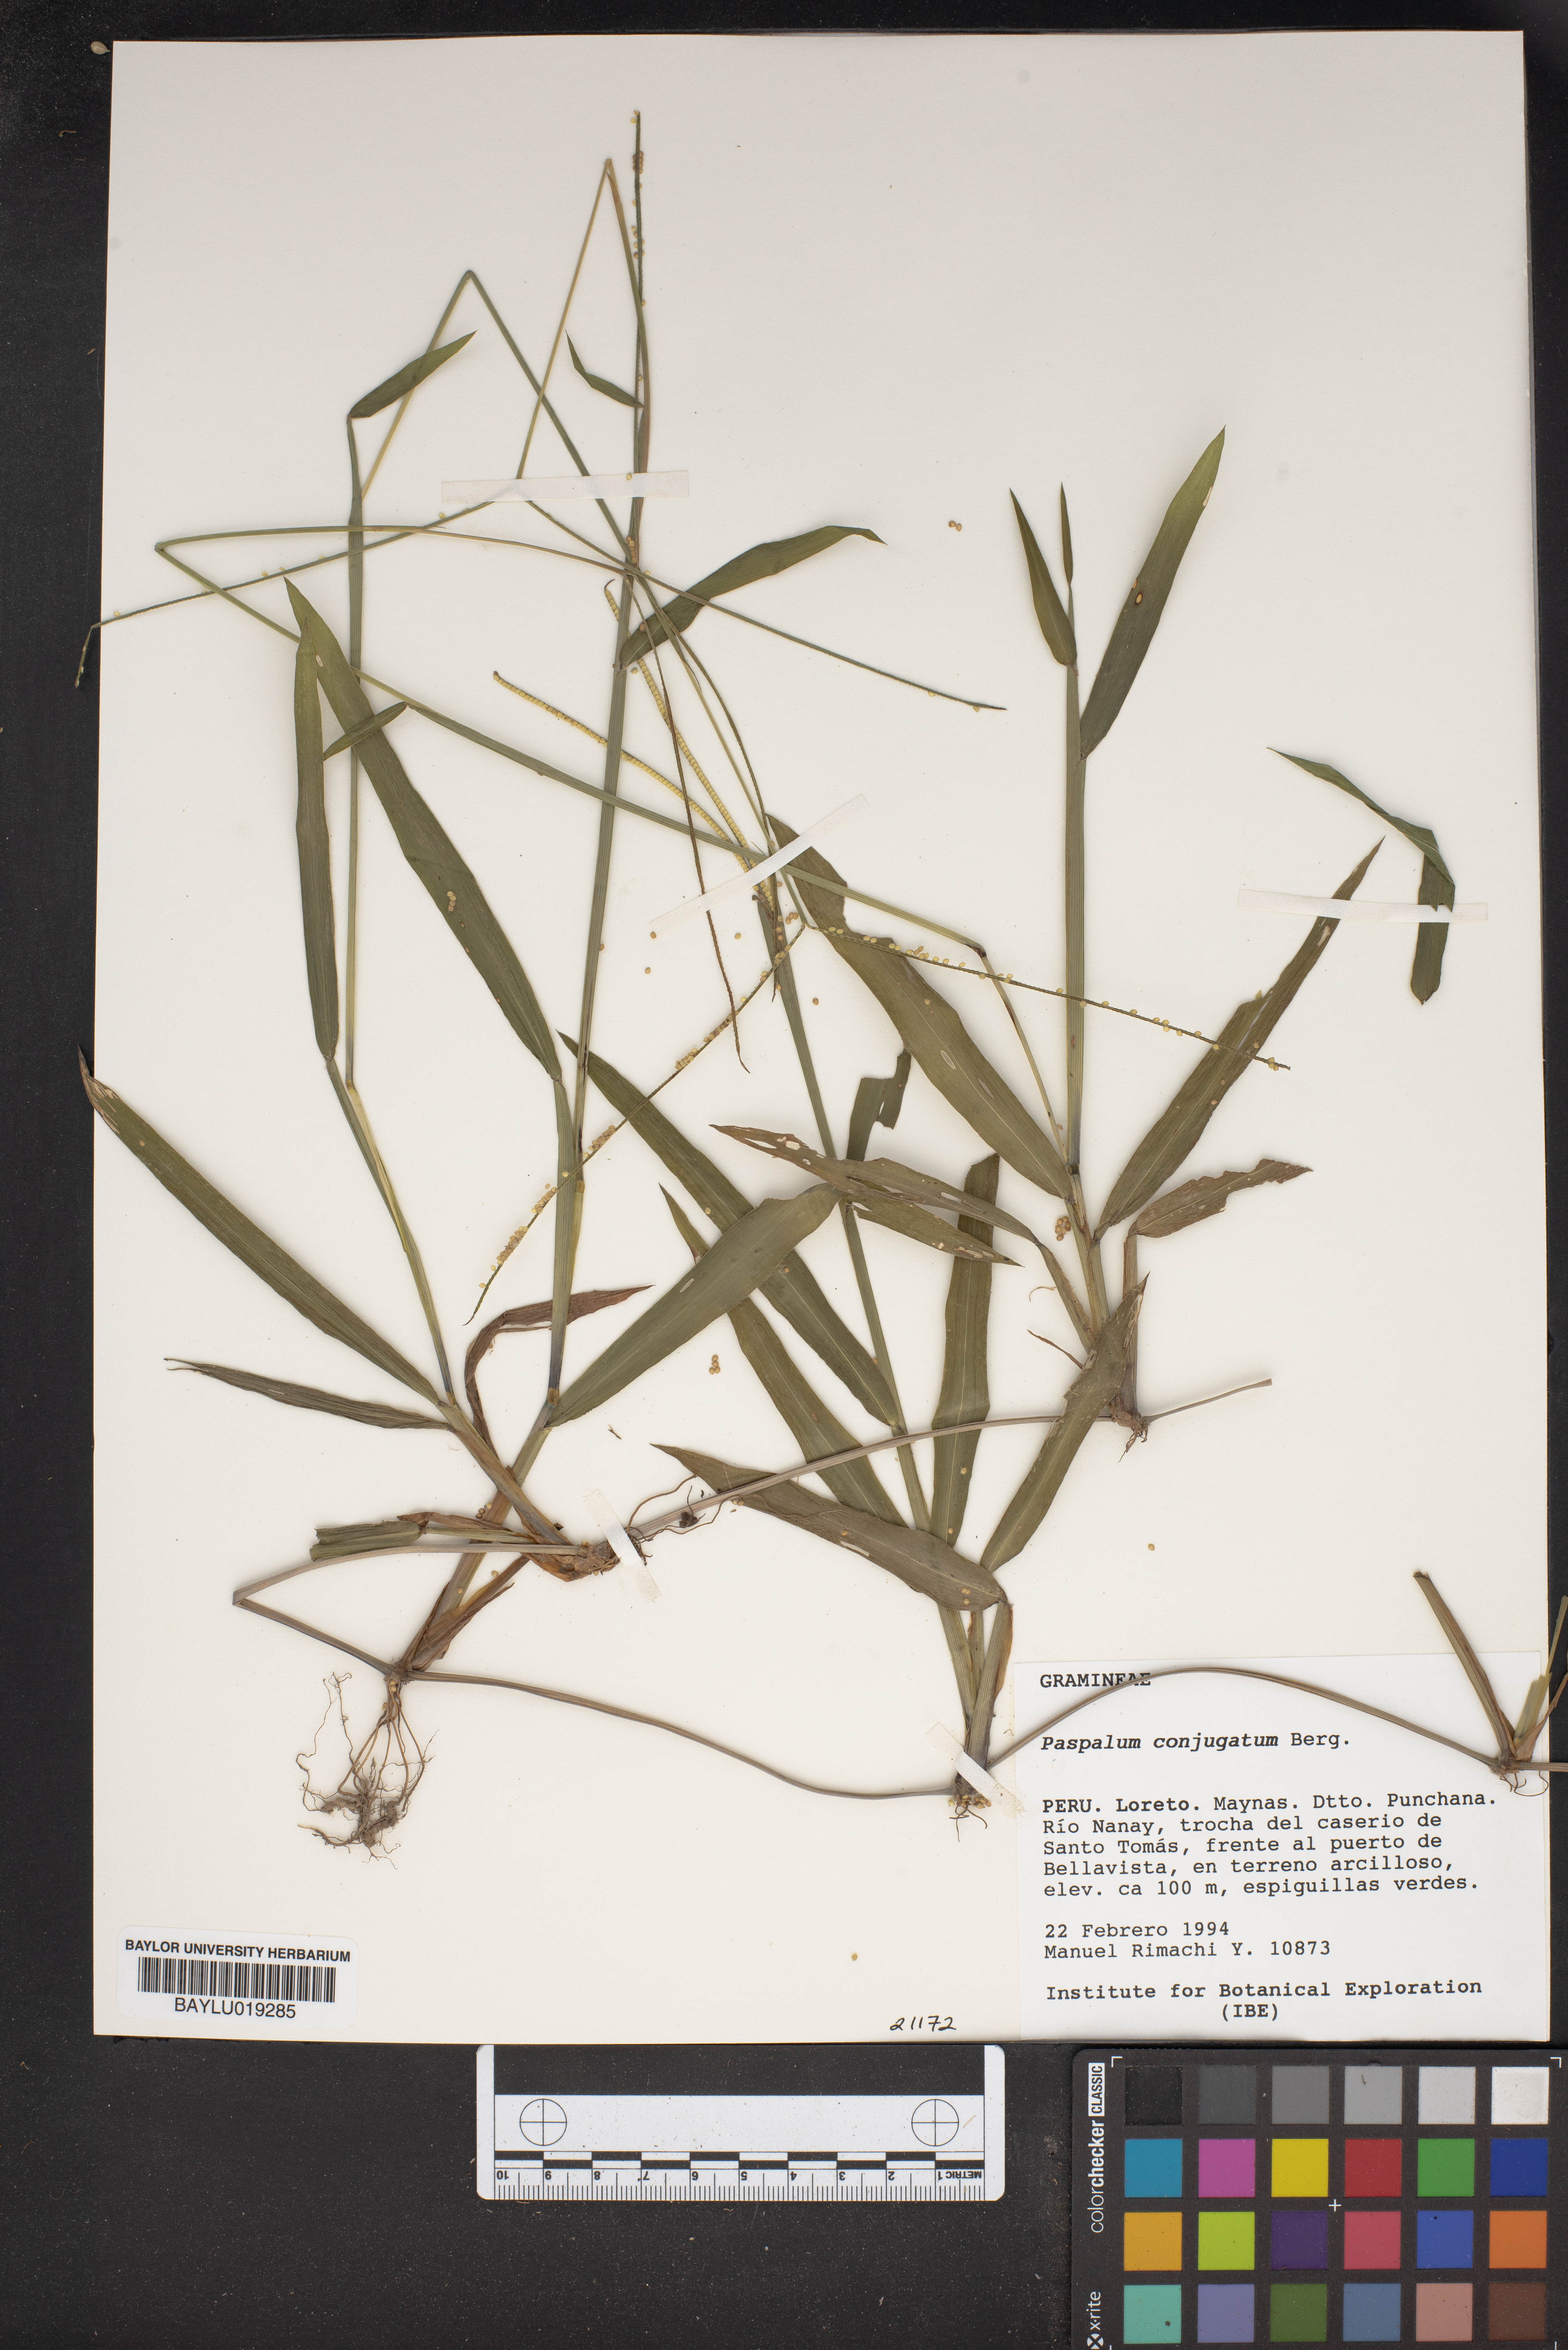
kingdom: Plantae
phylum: Tracheophyta
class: Liliopsida
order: Poales
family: Poaceae
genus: Paspalum
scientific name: Paspalum conjugatum
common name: Hilograss
